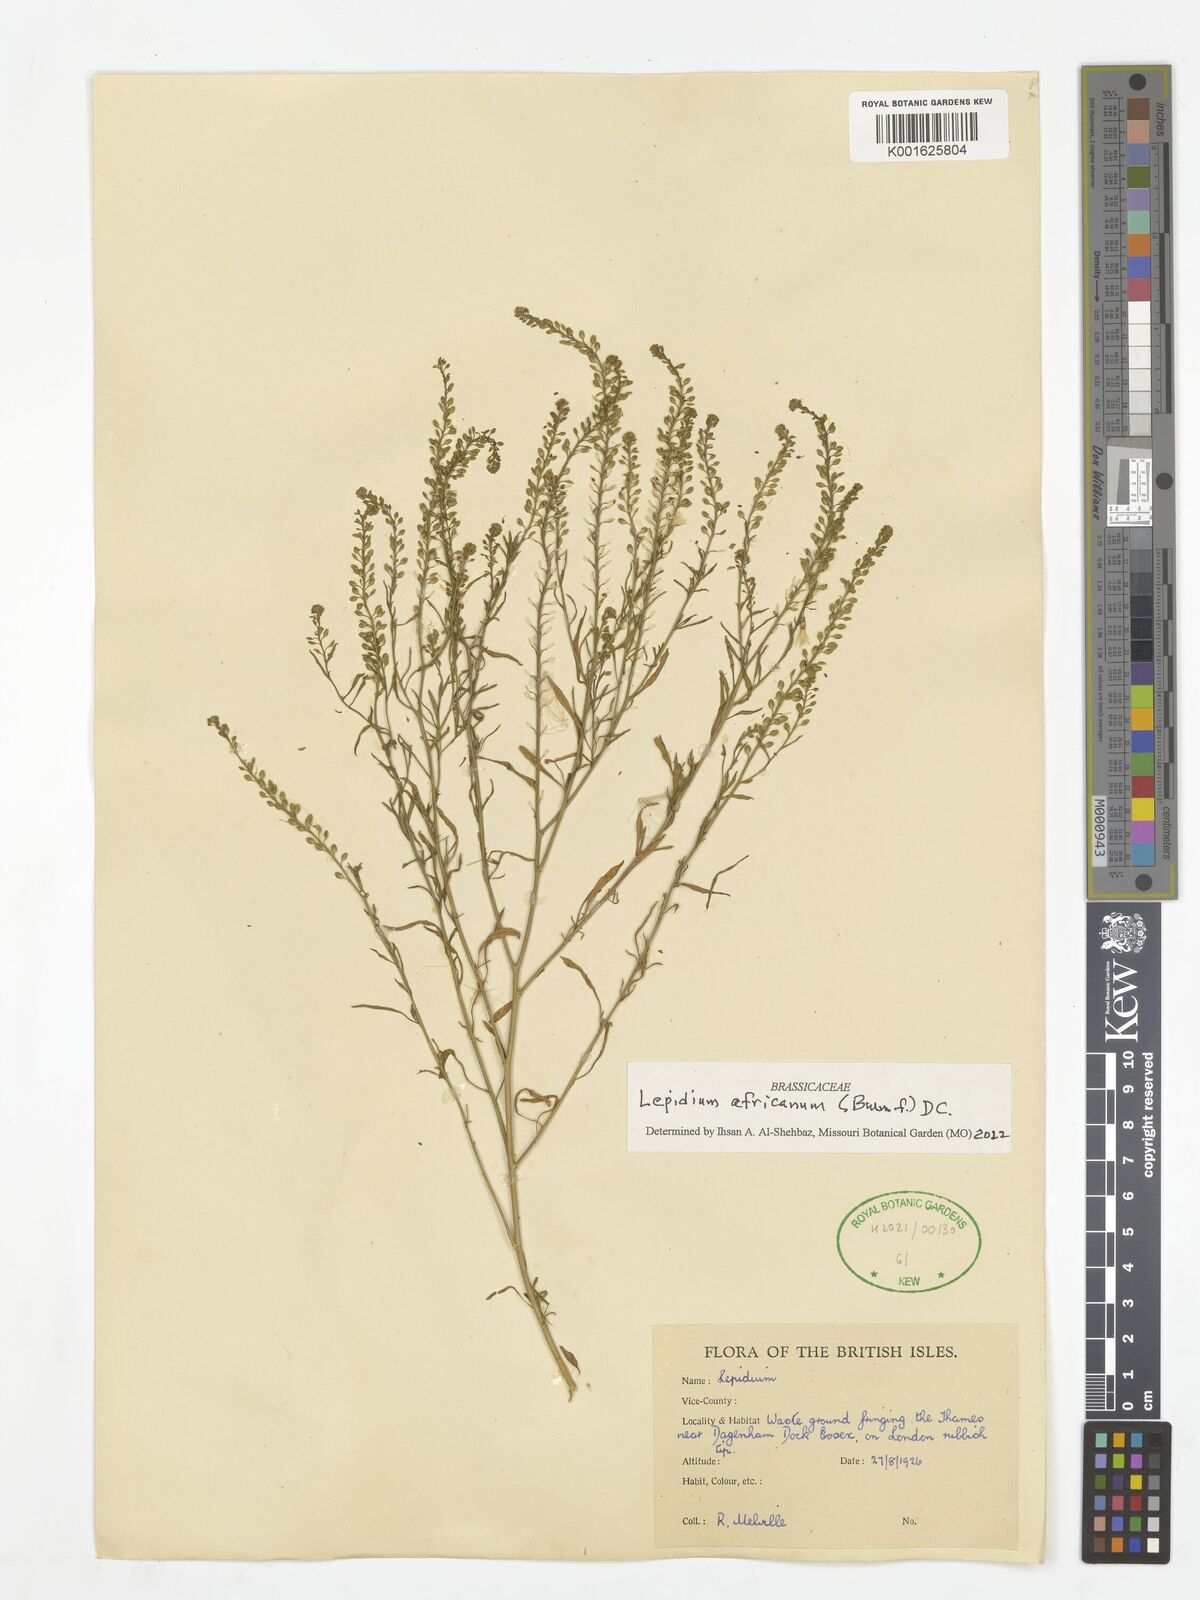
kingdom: Plantae
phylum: Tracheophyta
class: Magnoliopsida
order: Brassicales
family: Brassicaceae
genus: Lepidium
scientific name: Lepidium africanum
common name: African pepperwort
